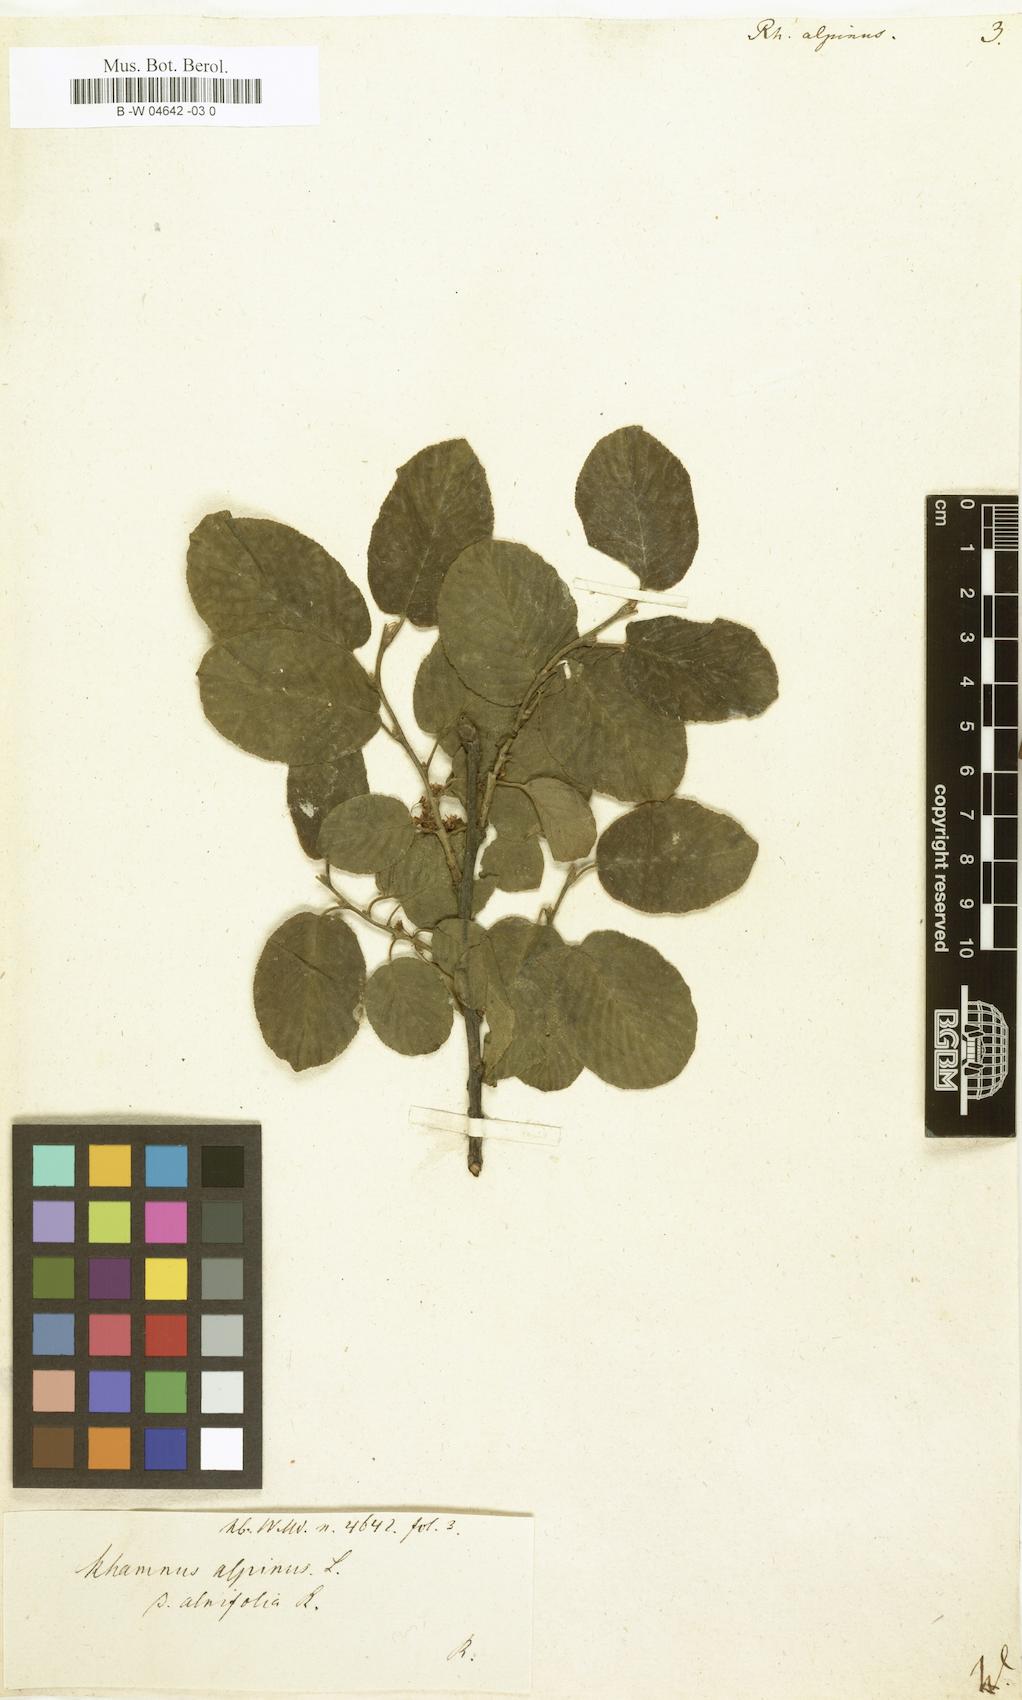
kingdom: Plantae
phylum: Tracheophyta
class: Magnoliopsida
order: Rosales
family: Rhamnaceae
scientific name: Rhamnaceae
